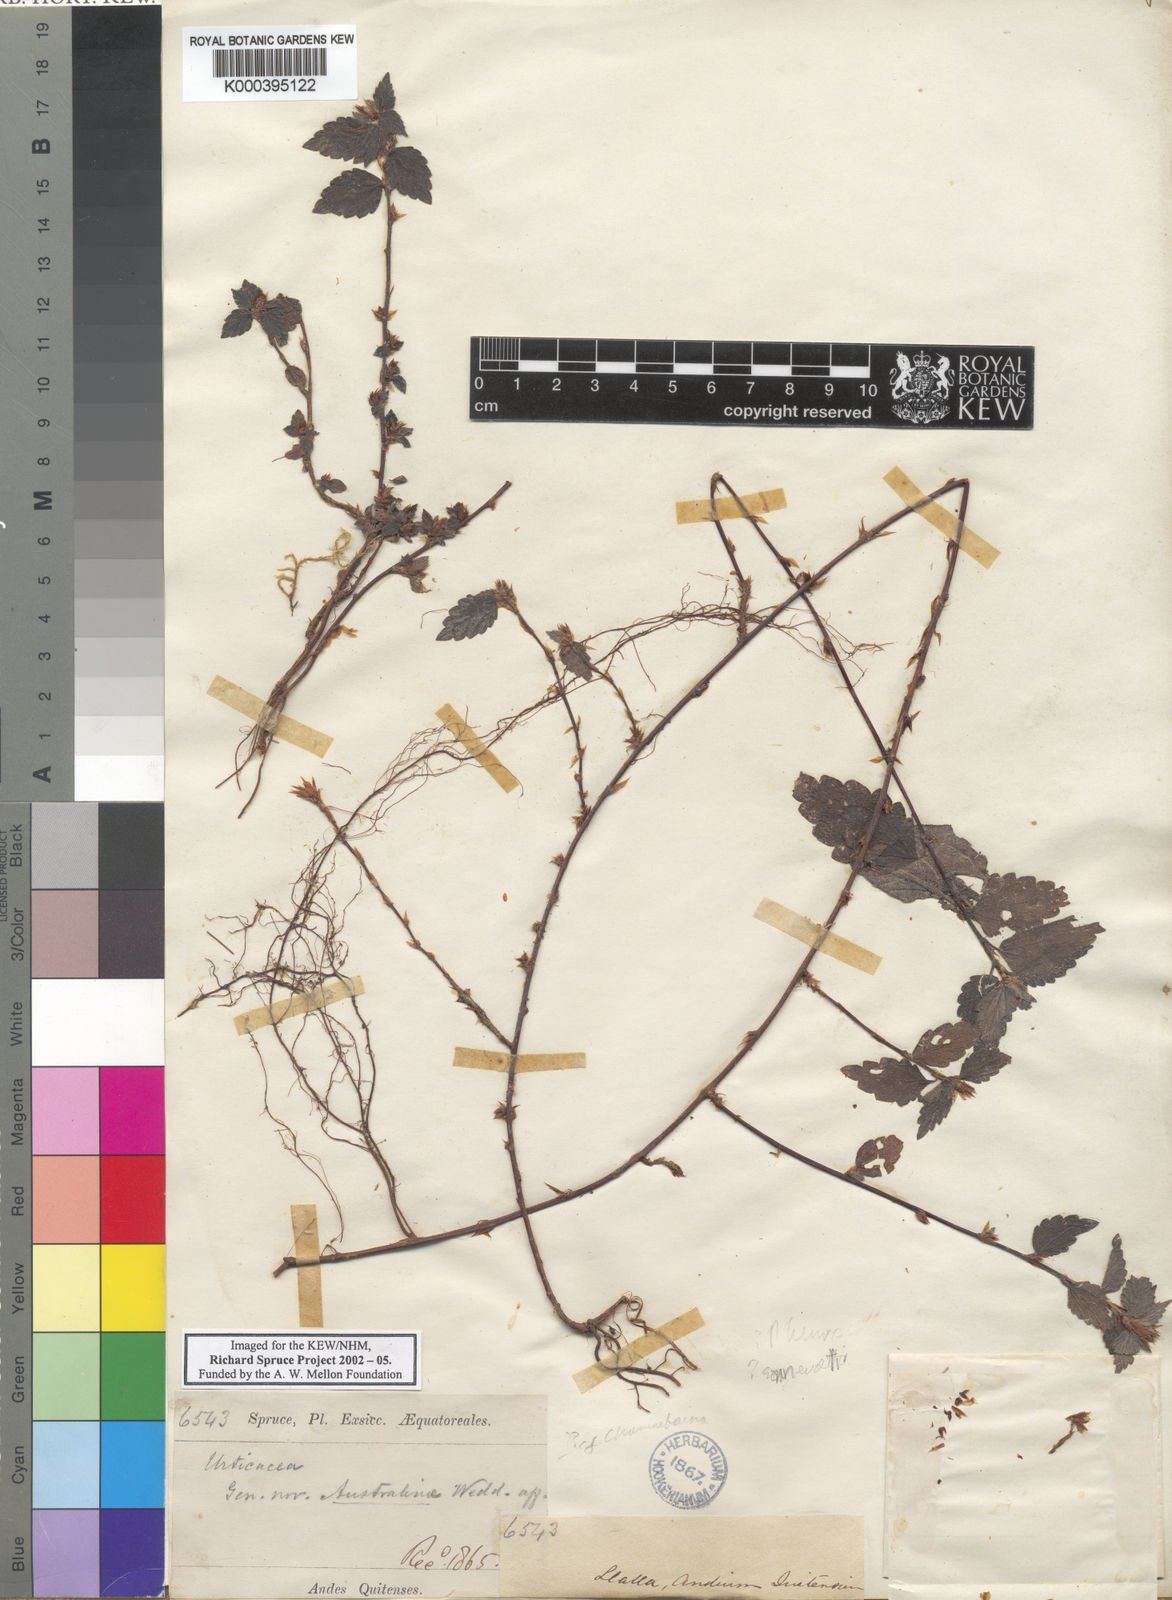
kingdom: Plantae
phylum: Tracheophyta
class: Magnoliopsida
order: Rosales
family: Urticaceae
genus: Phenax
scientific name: Phenax sonneratii
